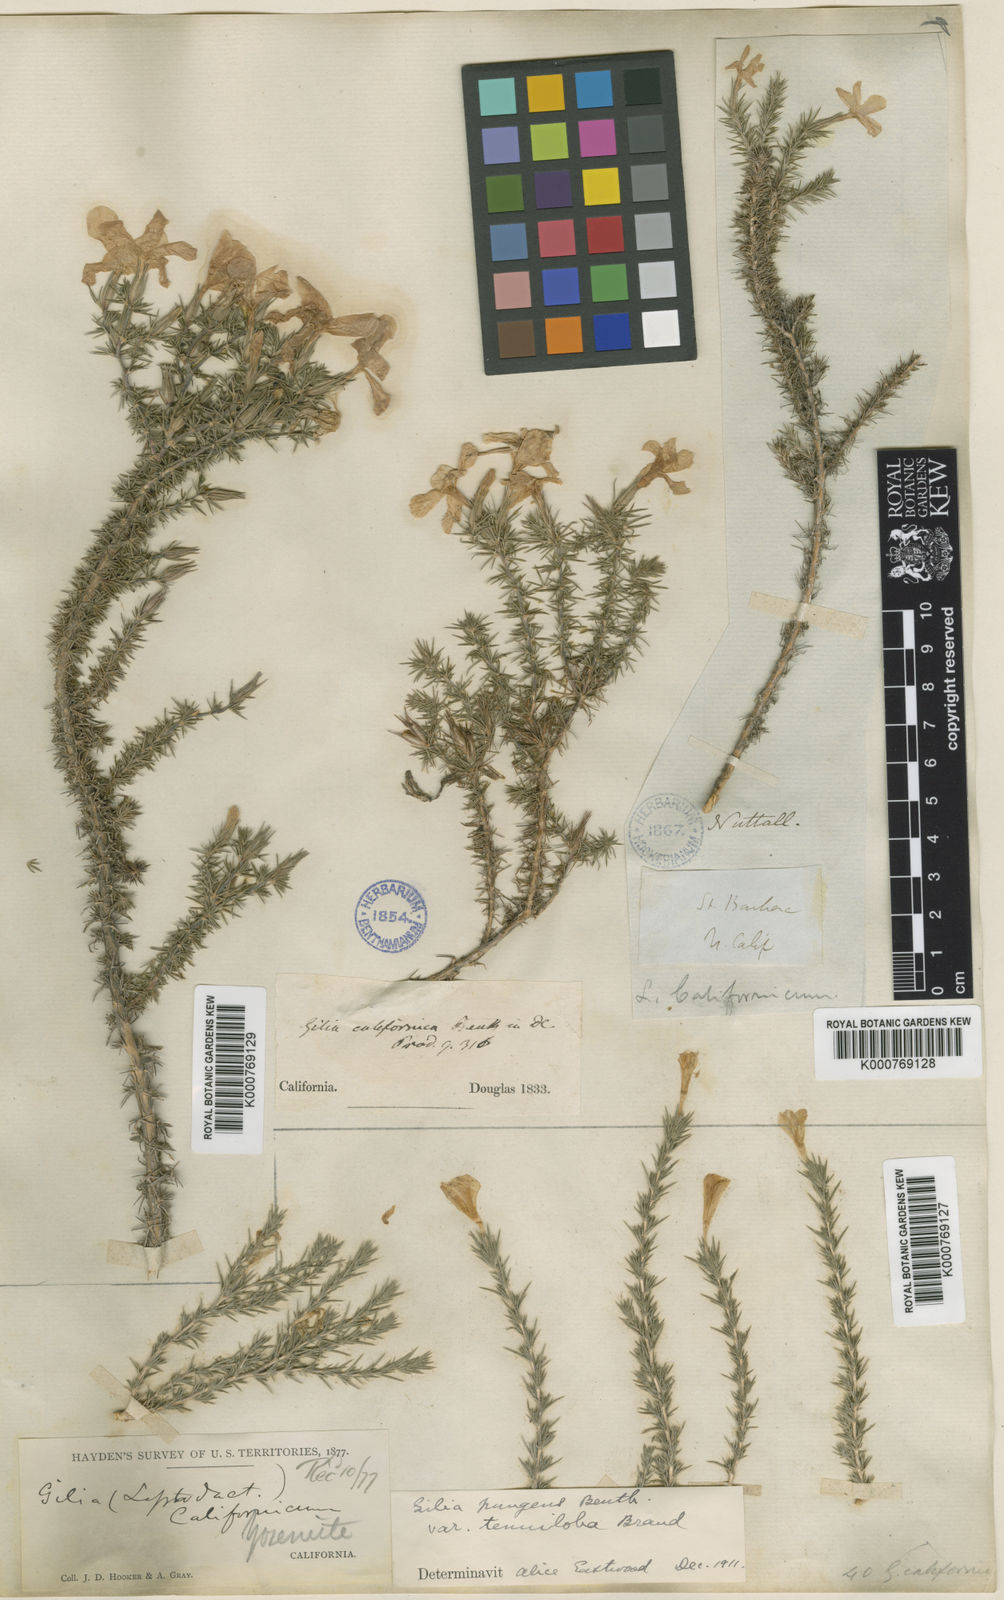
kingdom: Plantae
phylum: Tracheophyta
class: Magnoliopsida
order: Ericales
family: Polemoniaceae
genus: Linanthus
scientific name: Linanthus californicus
